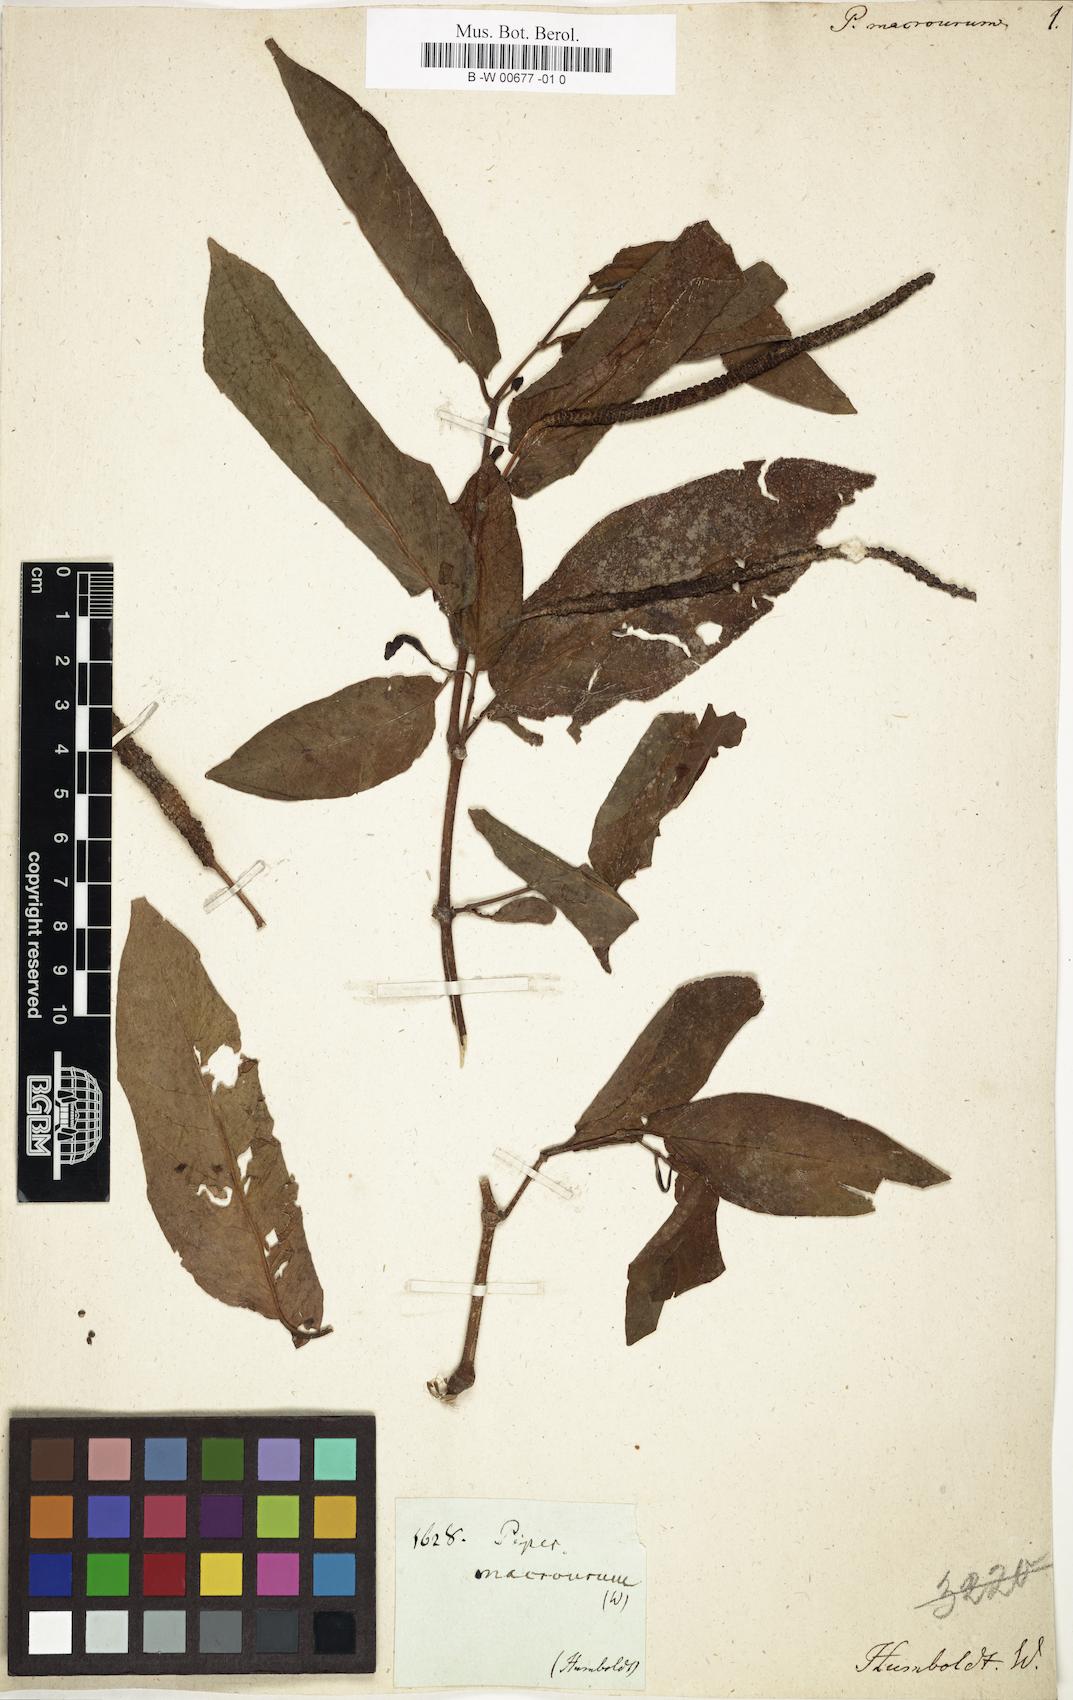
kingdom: Plantae
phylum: Tracheophyta
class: Magnoliopsida
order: Piperales
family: Piperaceae
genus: Piper
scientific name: Piper tuberculatum
